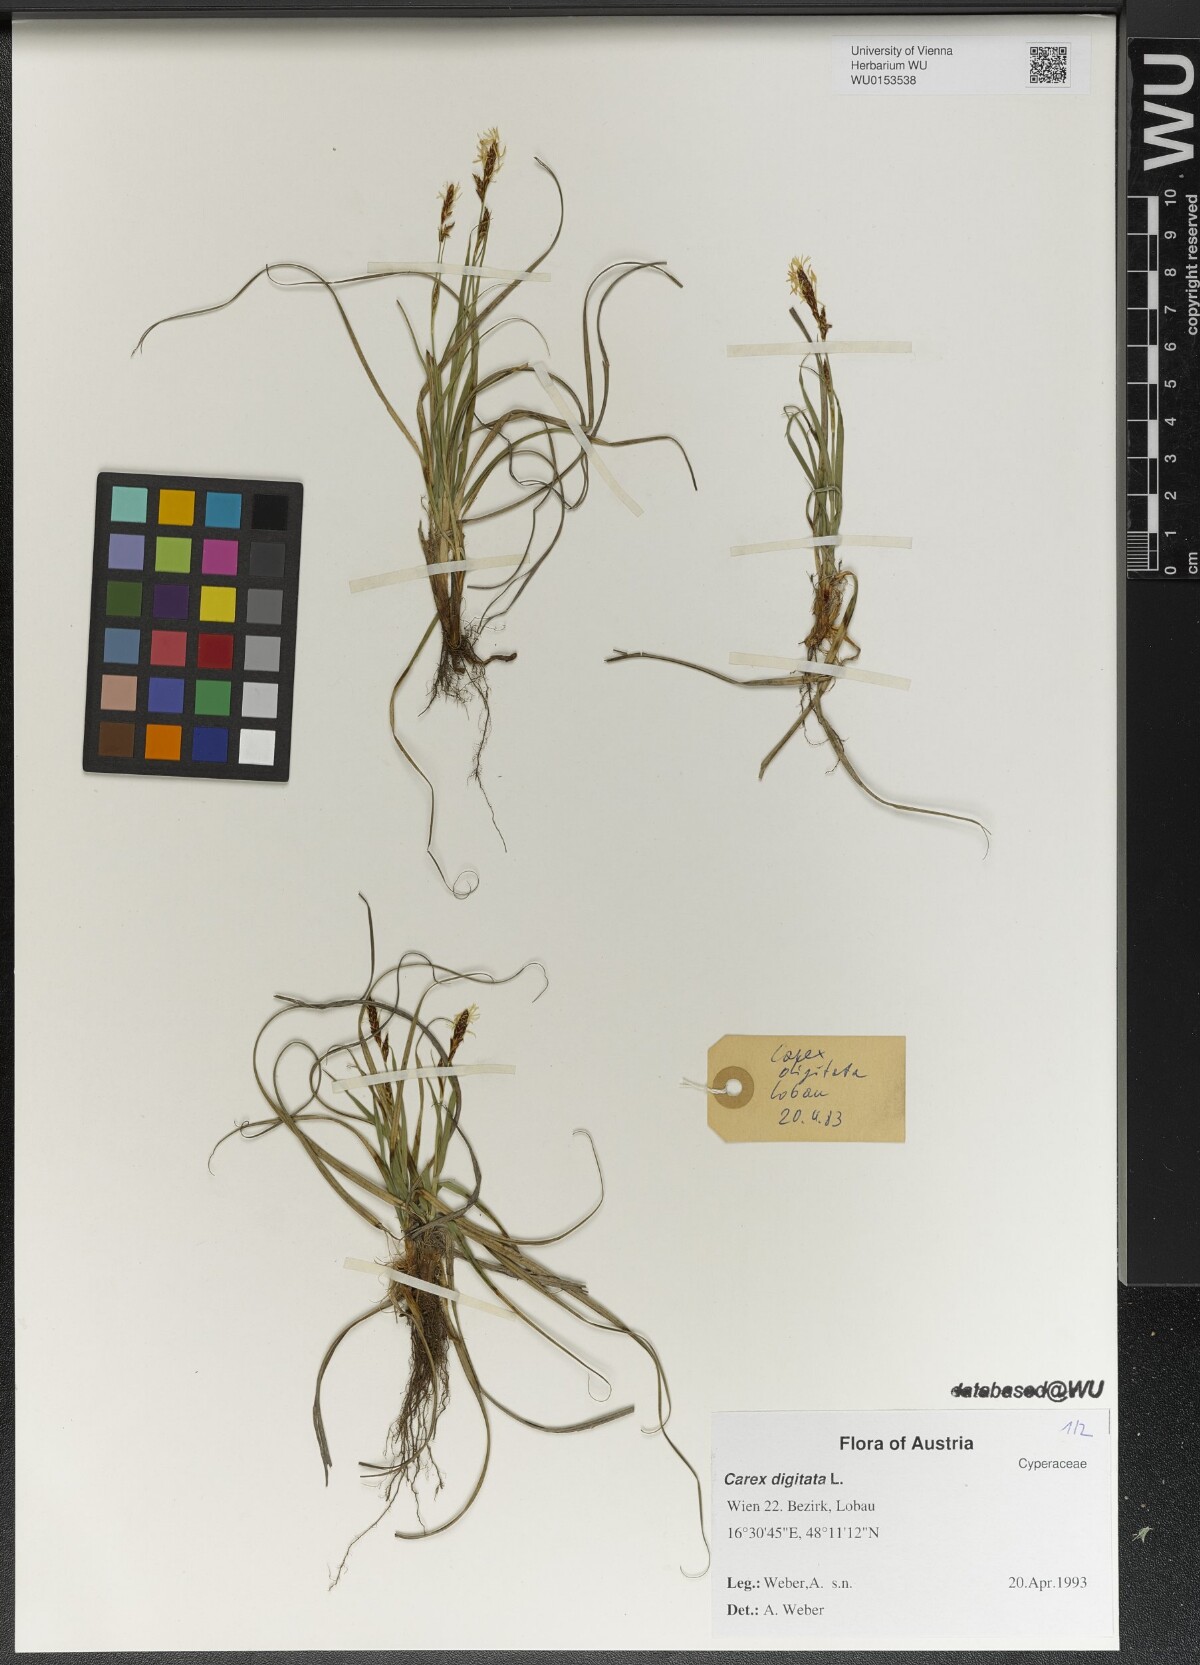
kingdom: Plantae
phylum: Tracheophyta
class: Liliopsida
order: Poales
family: Cyperaceae
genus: Carex
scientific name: Carex digitata
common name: Fingered sedge
